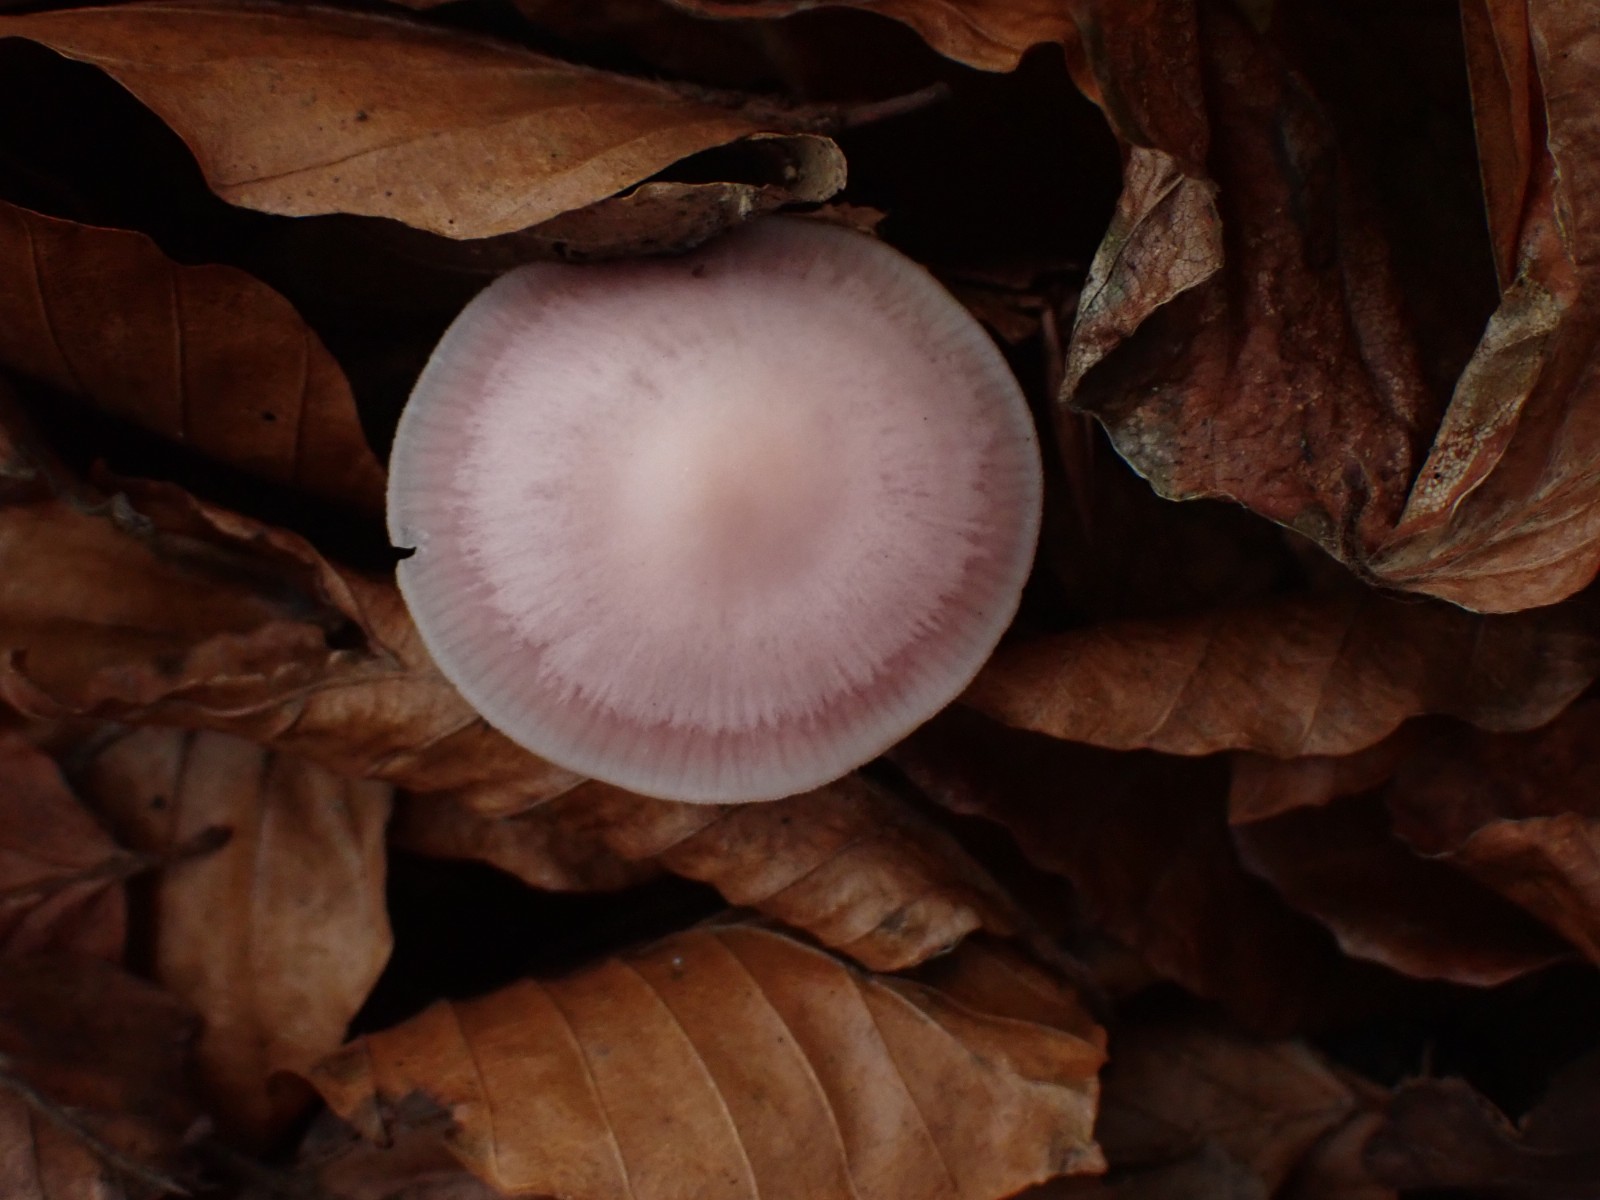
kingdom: Fungi
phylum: Basidiomycota
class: Agaricomycetes
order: Agaricales
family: Mycenaceae
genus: Mycena
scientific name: Mycena rosea
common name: rosa huesvamp
